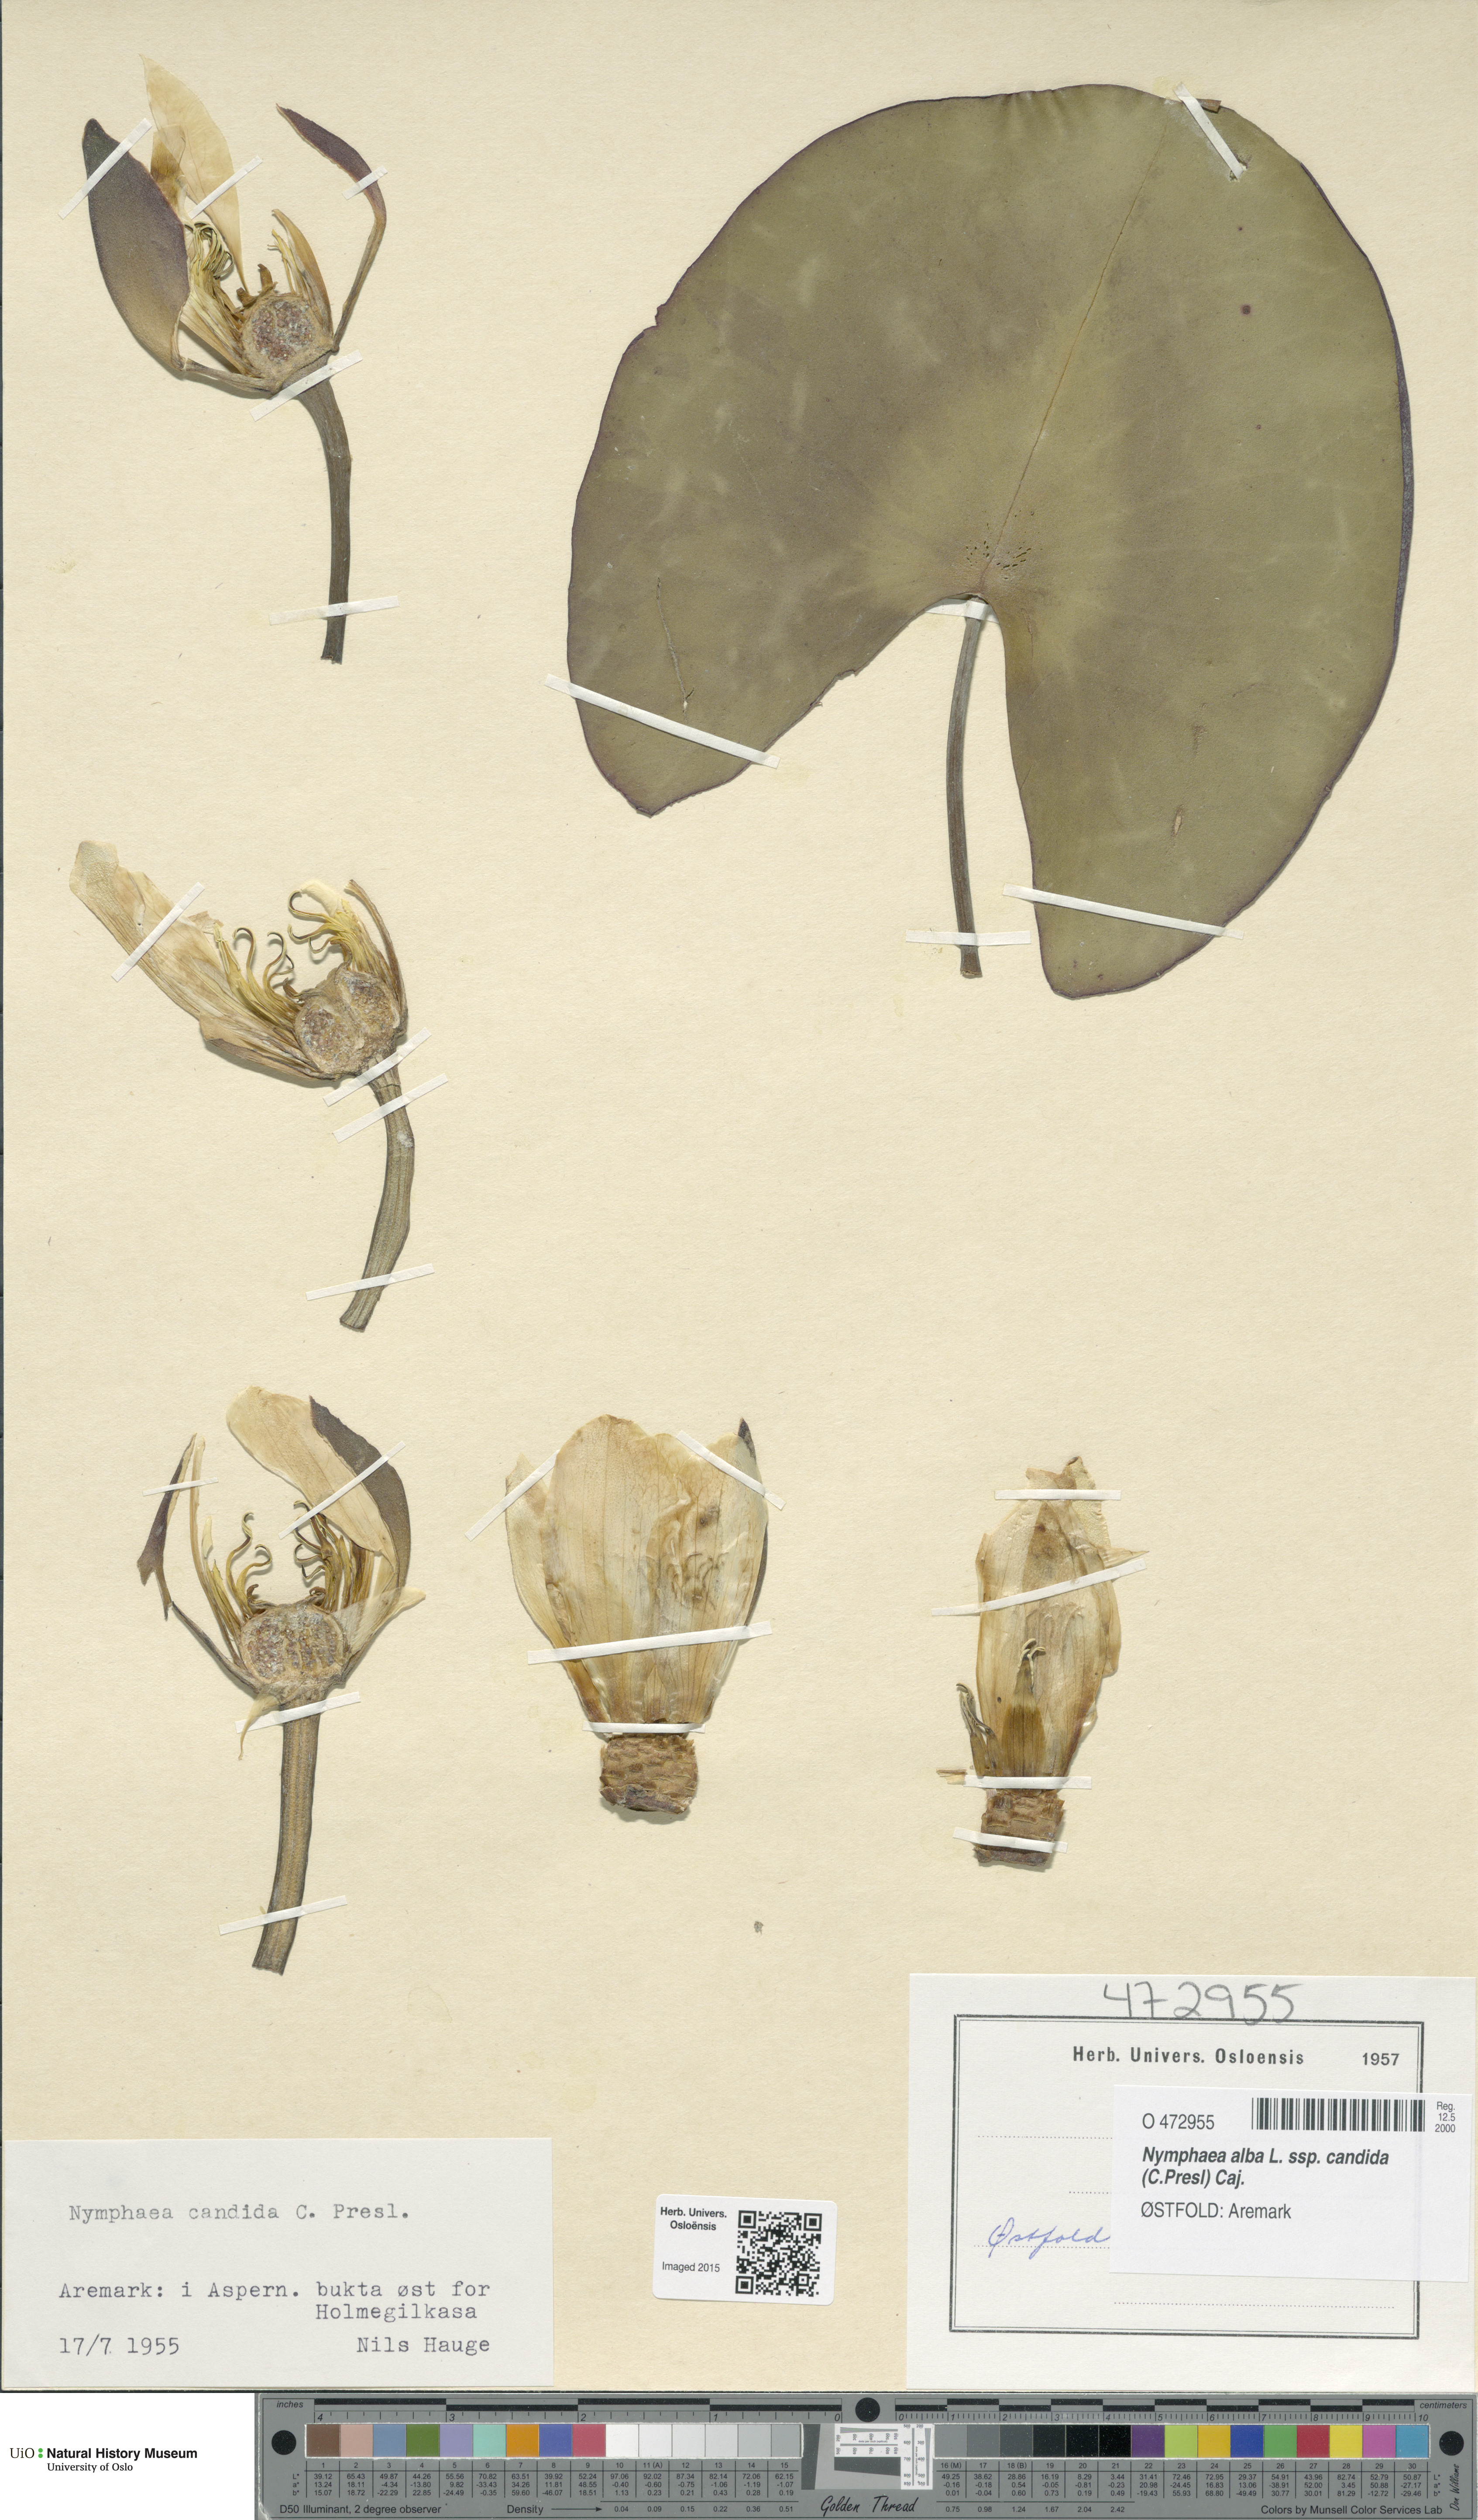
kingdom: Plantae
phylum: Tracheophyta
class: Magnoliopsida
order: Nymphaeales
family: Nymphaeaceae
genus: Nymphaea
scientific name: Nymphaea candida
